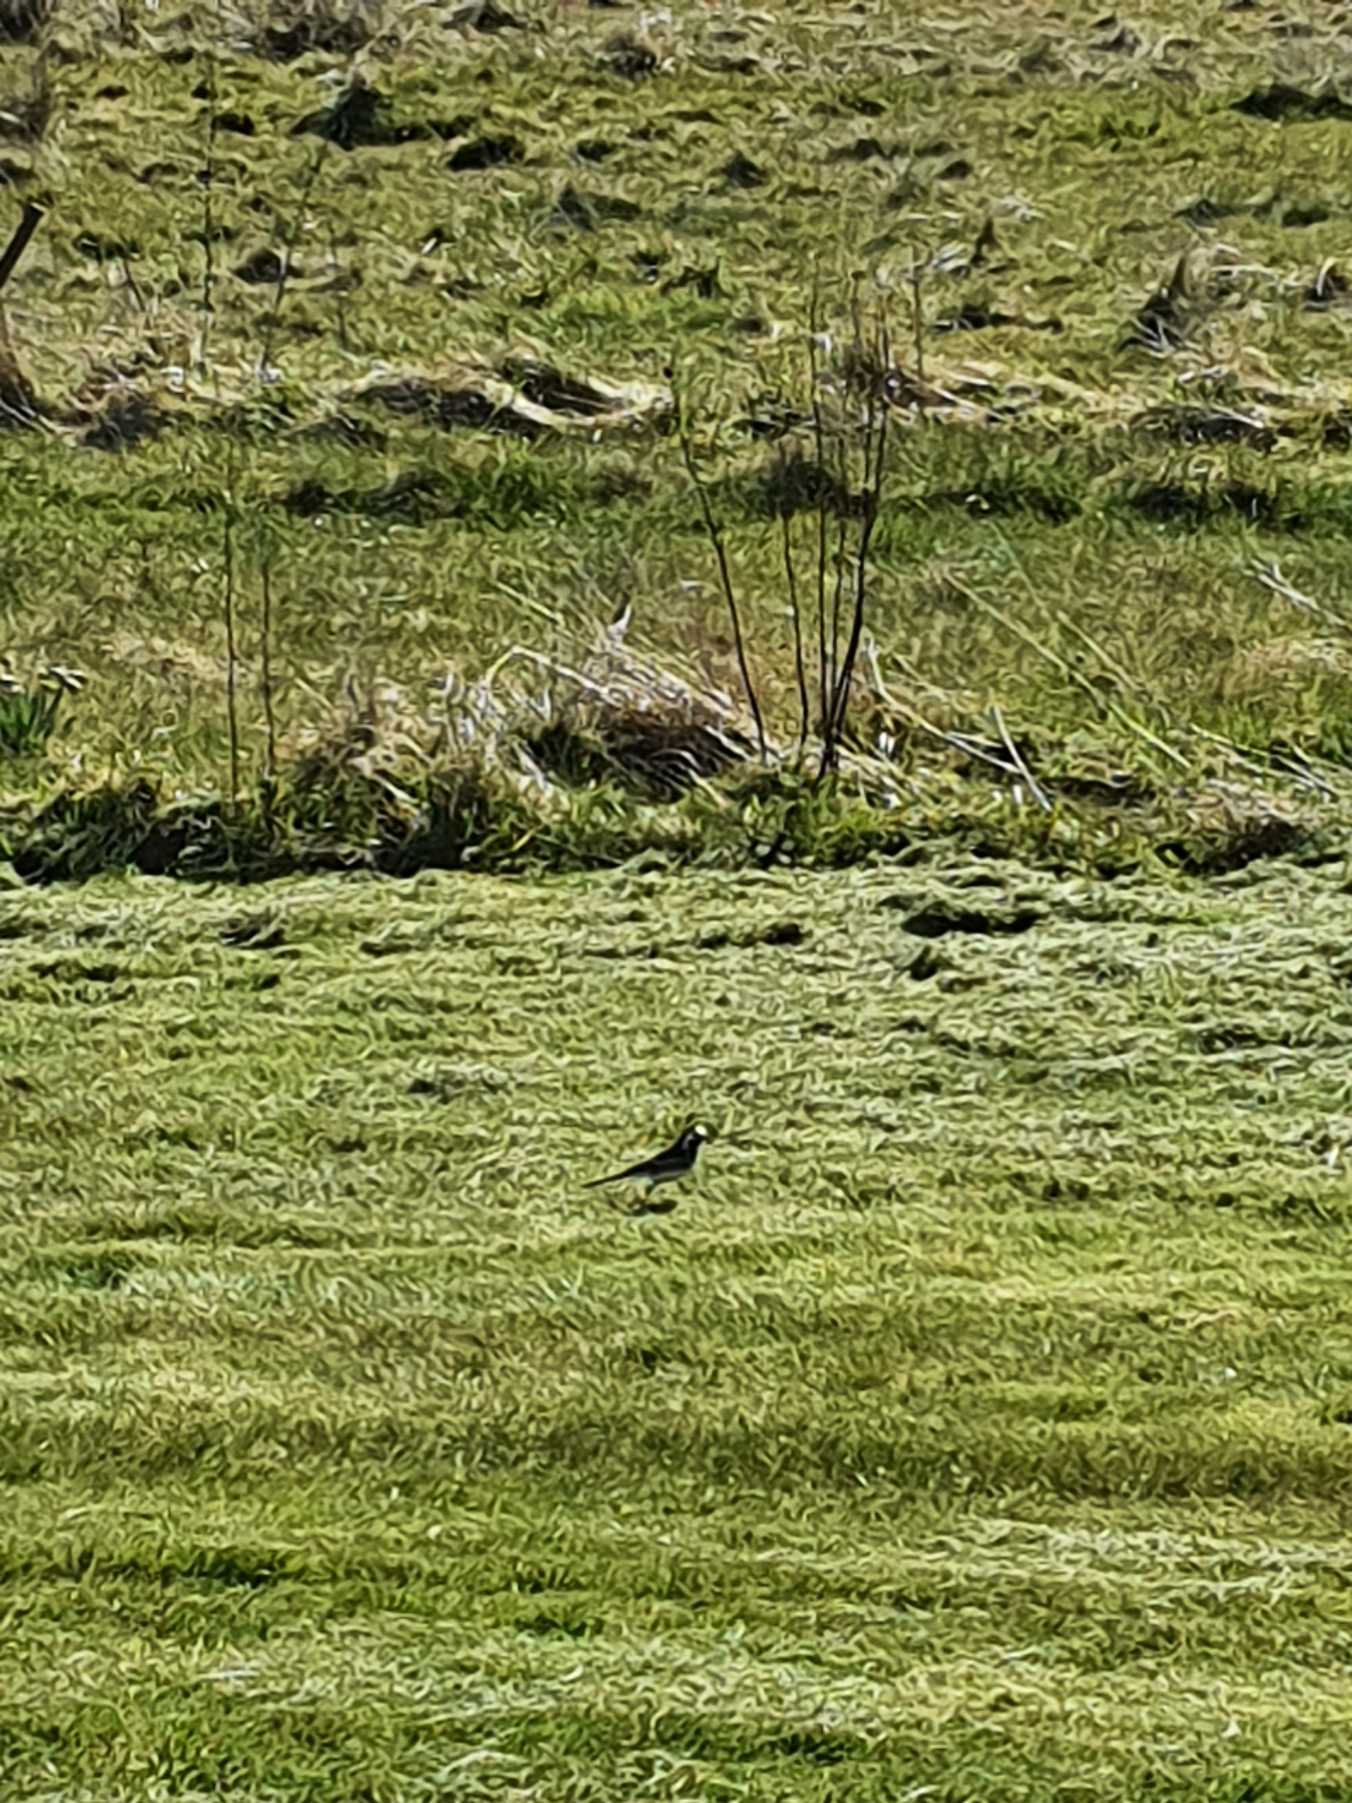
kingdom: Animalia
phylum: Chordata
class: Aves
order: Passeriformes
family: Motacillidae
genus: Motacilla
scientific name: Motacilla alba
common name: Hvid vipstjert
